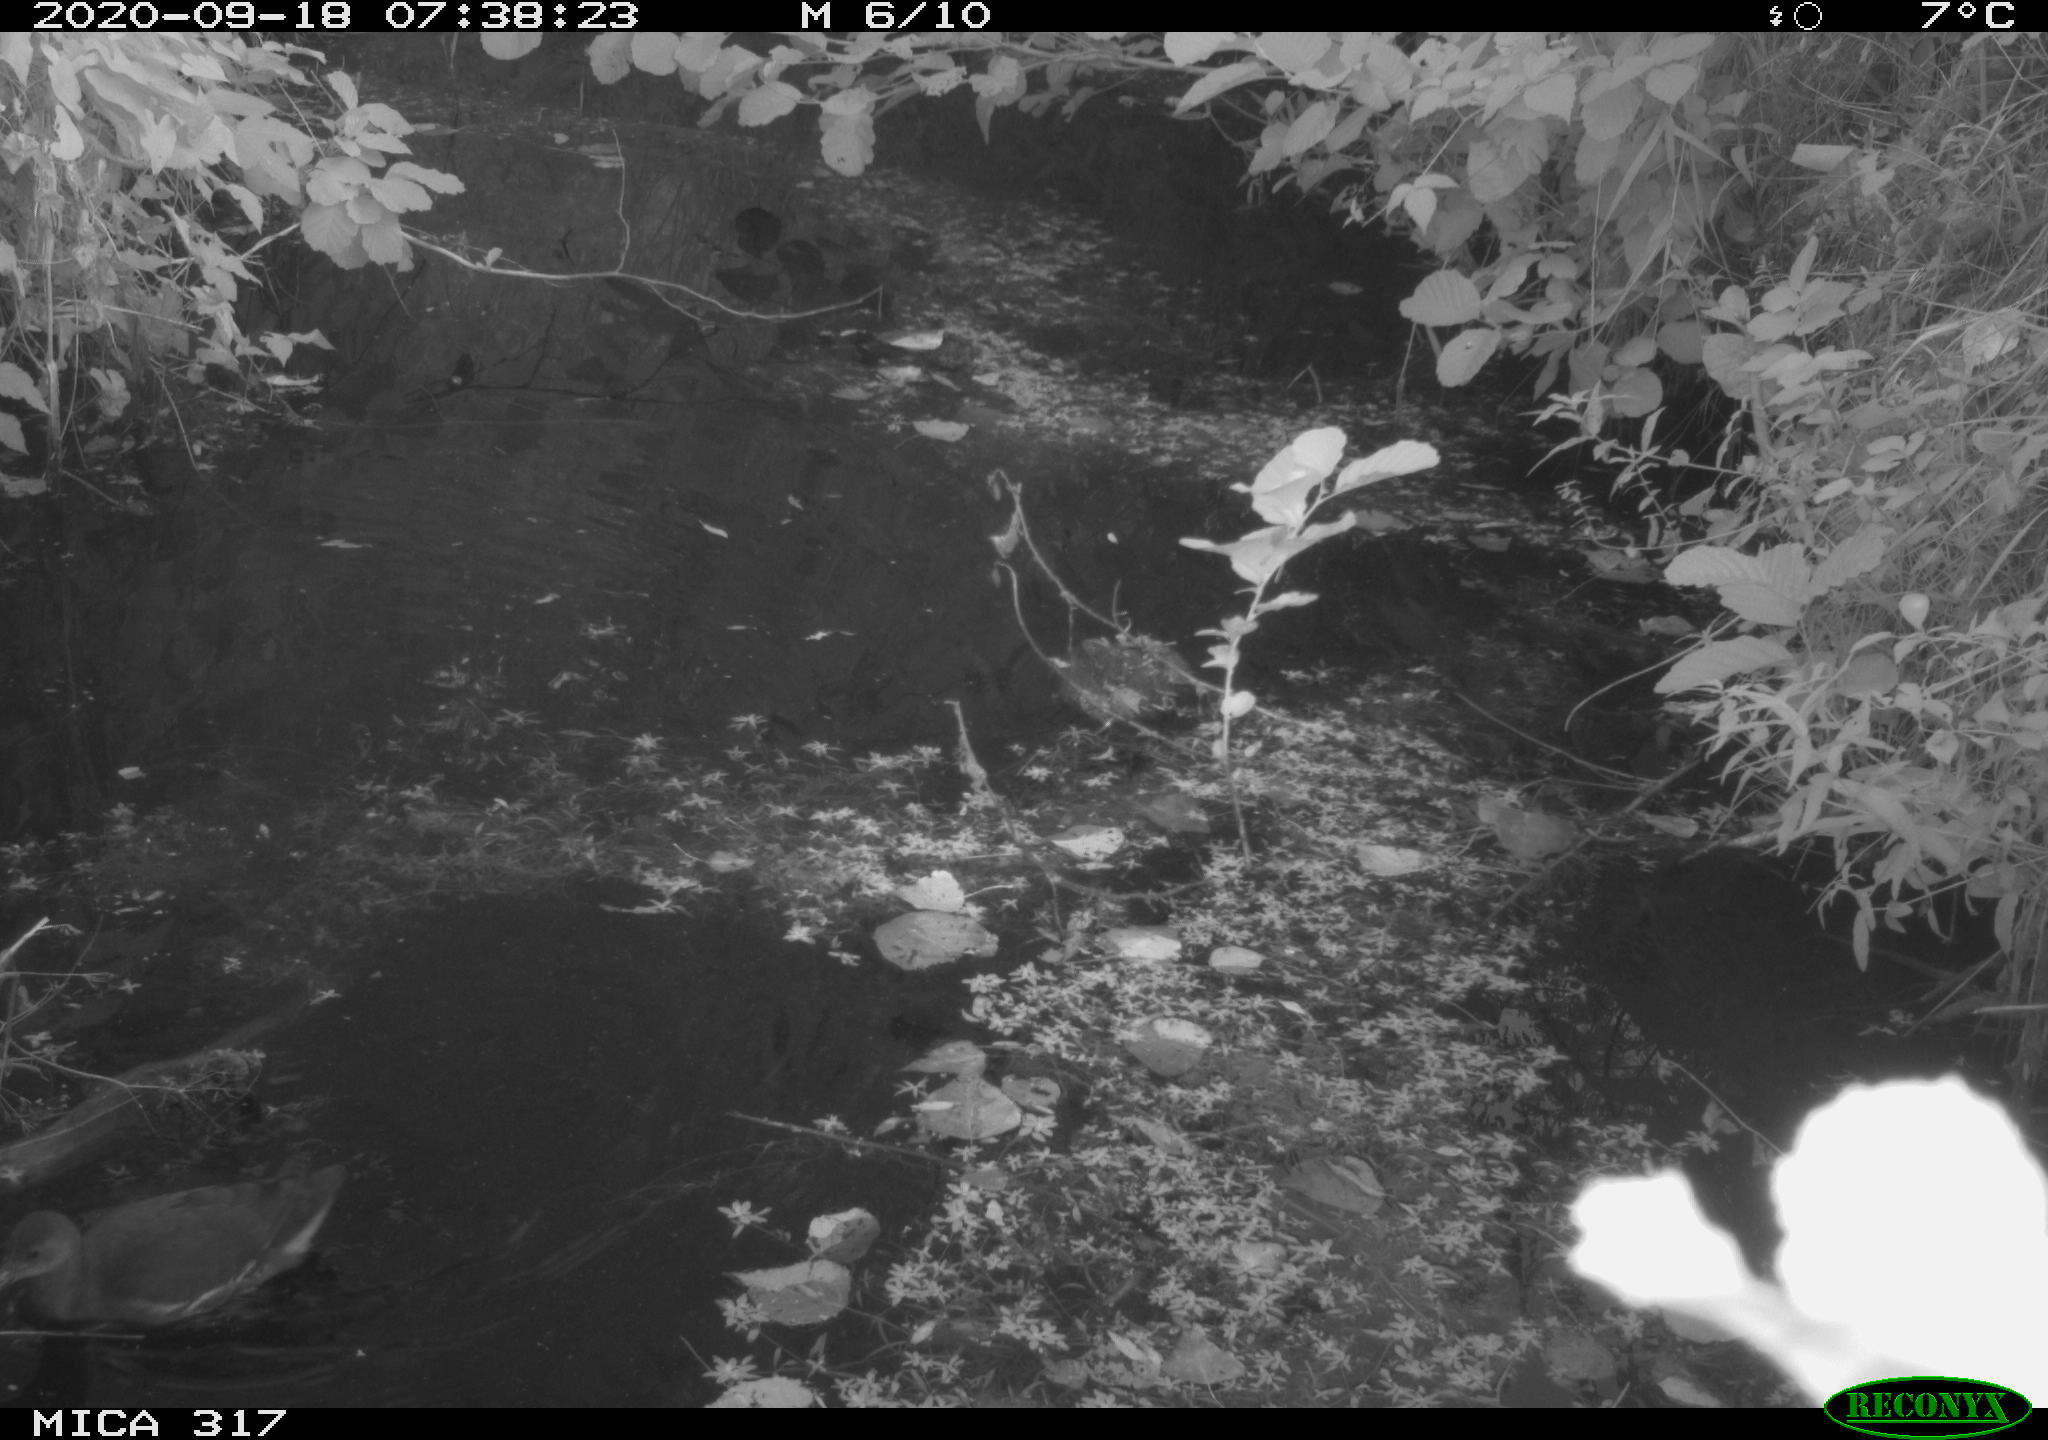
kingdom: Animalia
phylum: Chordata
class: Aves
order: Gruiformes
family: Rallidae
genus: Fulica
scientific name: Fulica atra
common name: Eurasian coot
